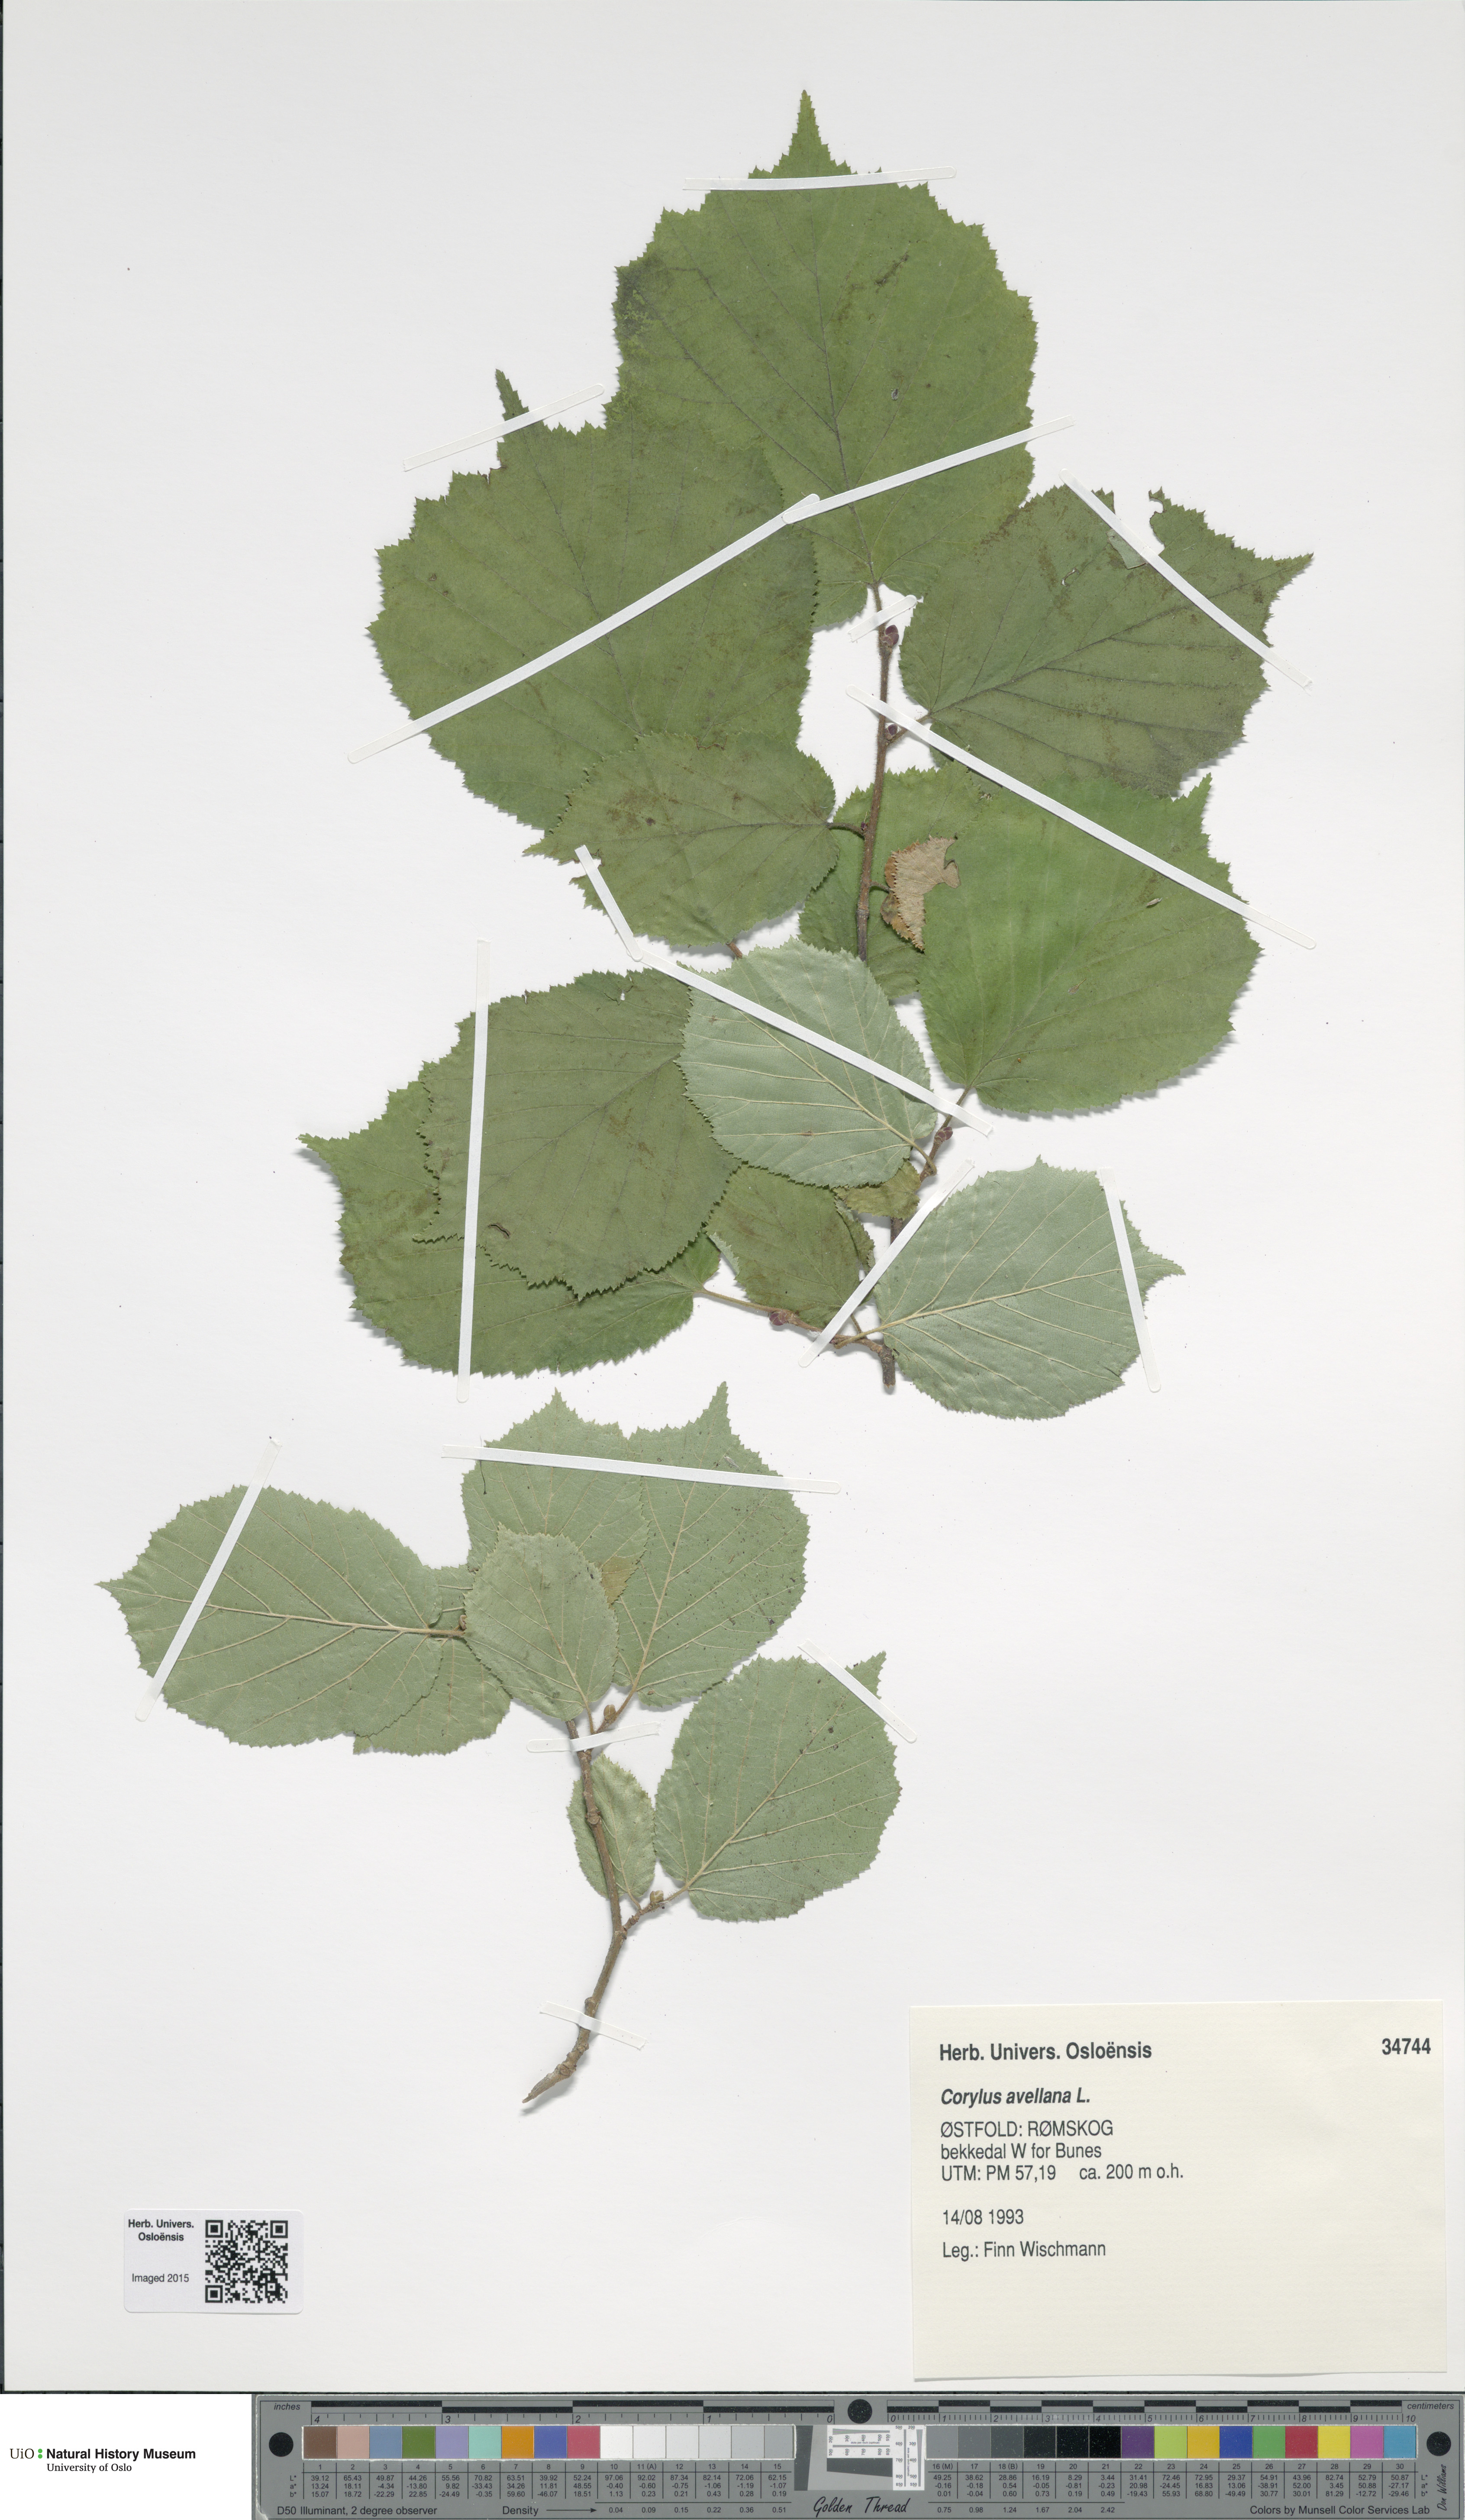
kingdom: Plantae
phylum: Tracheophyta
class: Magnoliopsida
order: Fagales
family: Betulaceae
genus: Corylus
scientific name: Corylus avellana
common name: European hazel
